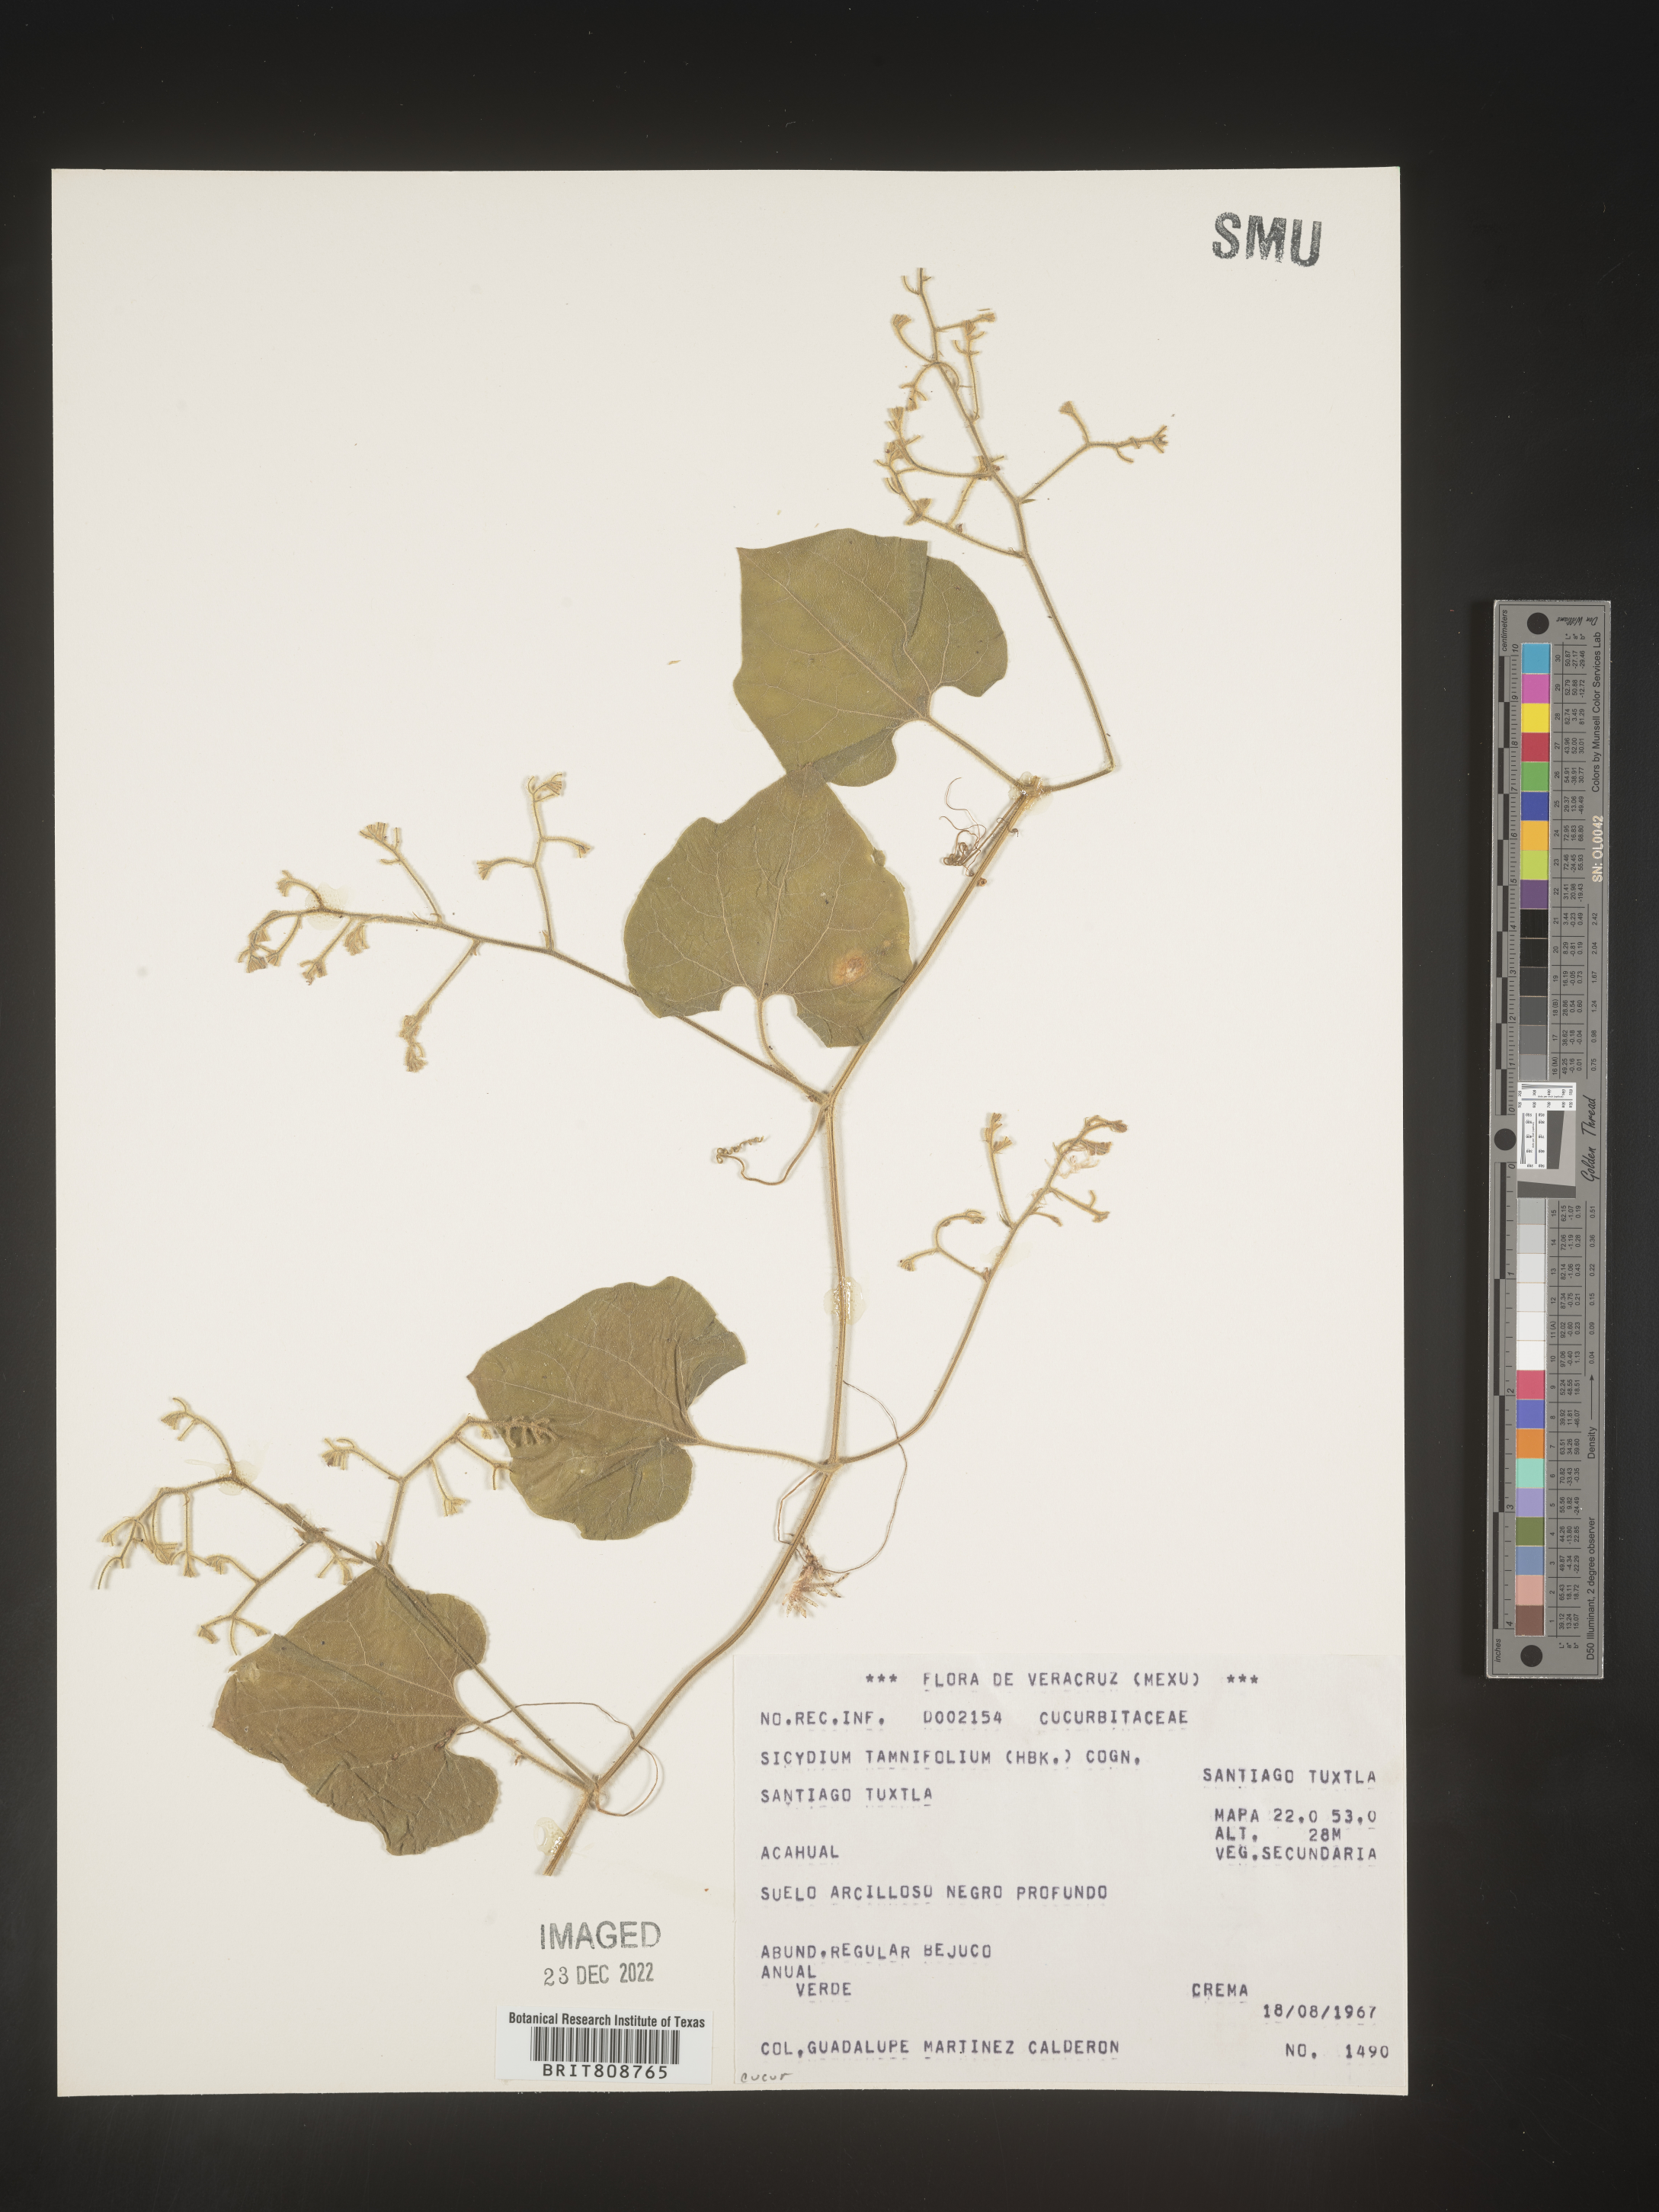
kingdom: Plantae
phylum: Tracheophyta
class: Magnoliopsida
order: Cucurbitales
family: Cucurbitaceae
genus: Sicydium
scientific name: Sicydium
